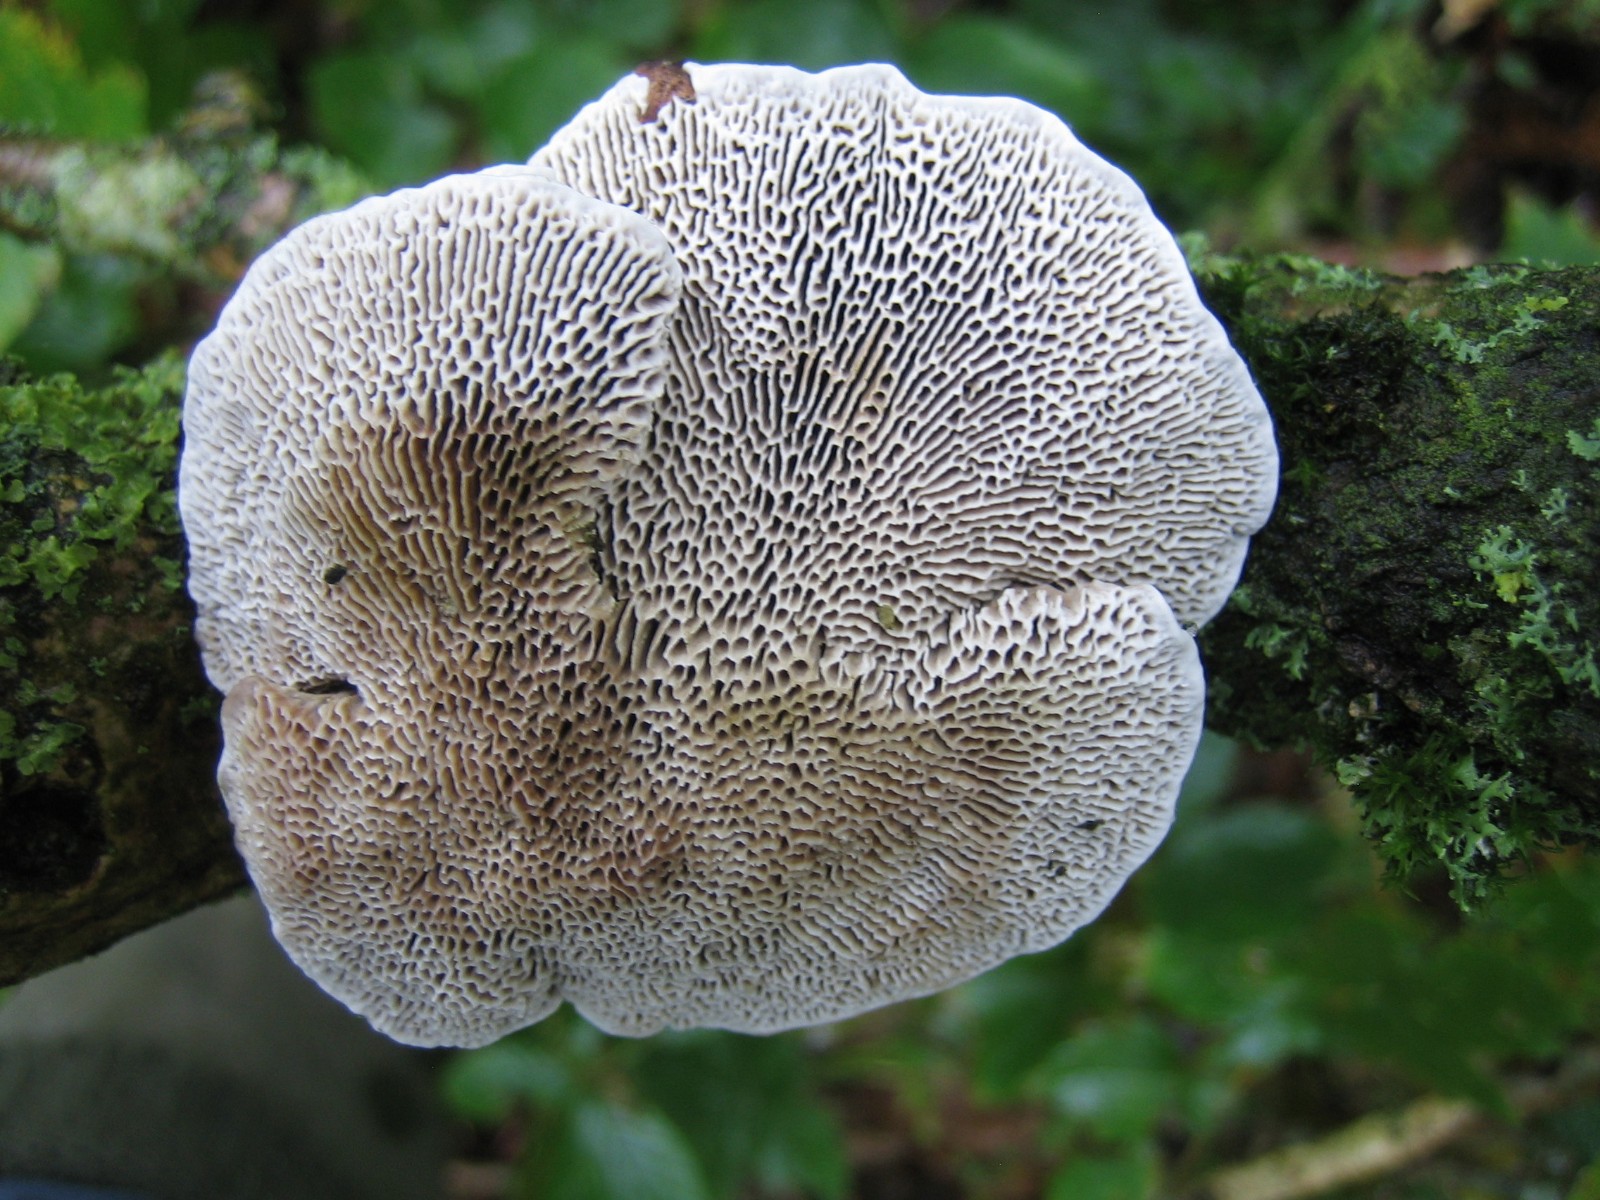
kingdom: Fungi
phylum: Basidiomycota
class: Agaricomycetes
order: Polyporales
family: Polyporaceae
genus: Daedaleopsis
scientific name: Daedaleopsis confragosa
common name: rødmende læderporesvamp
